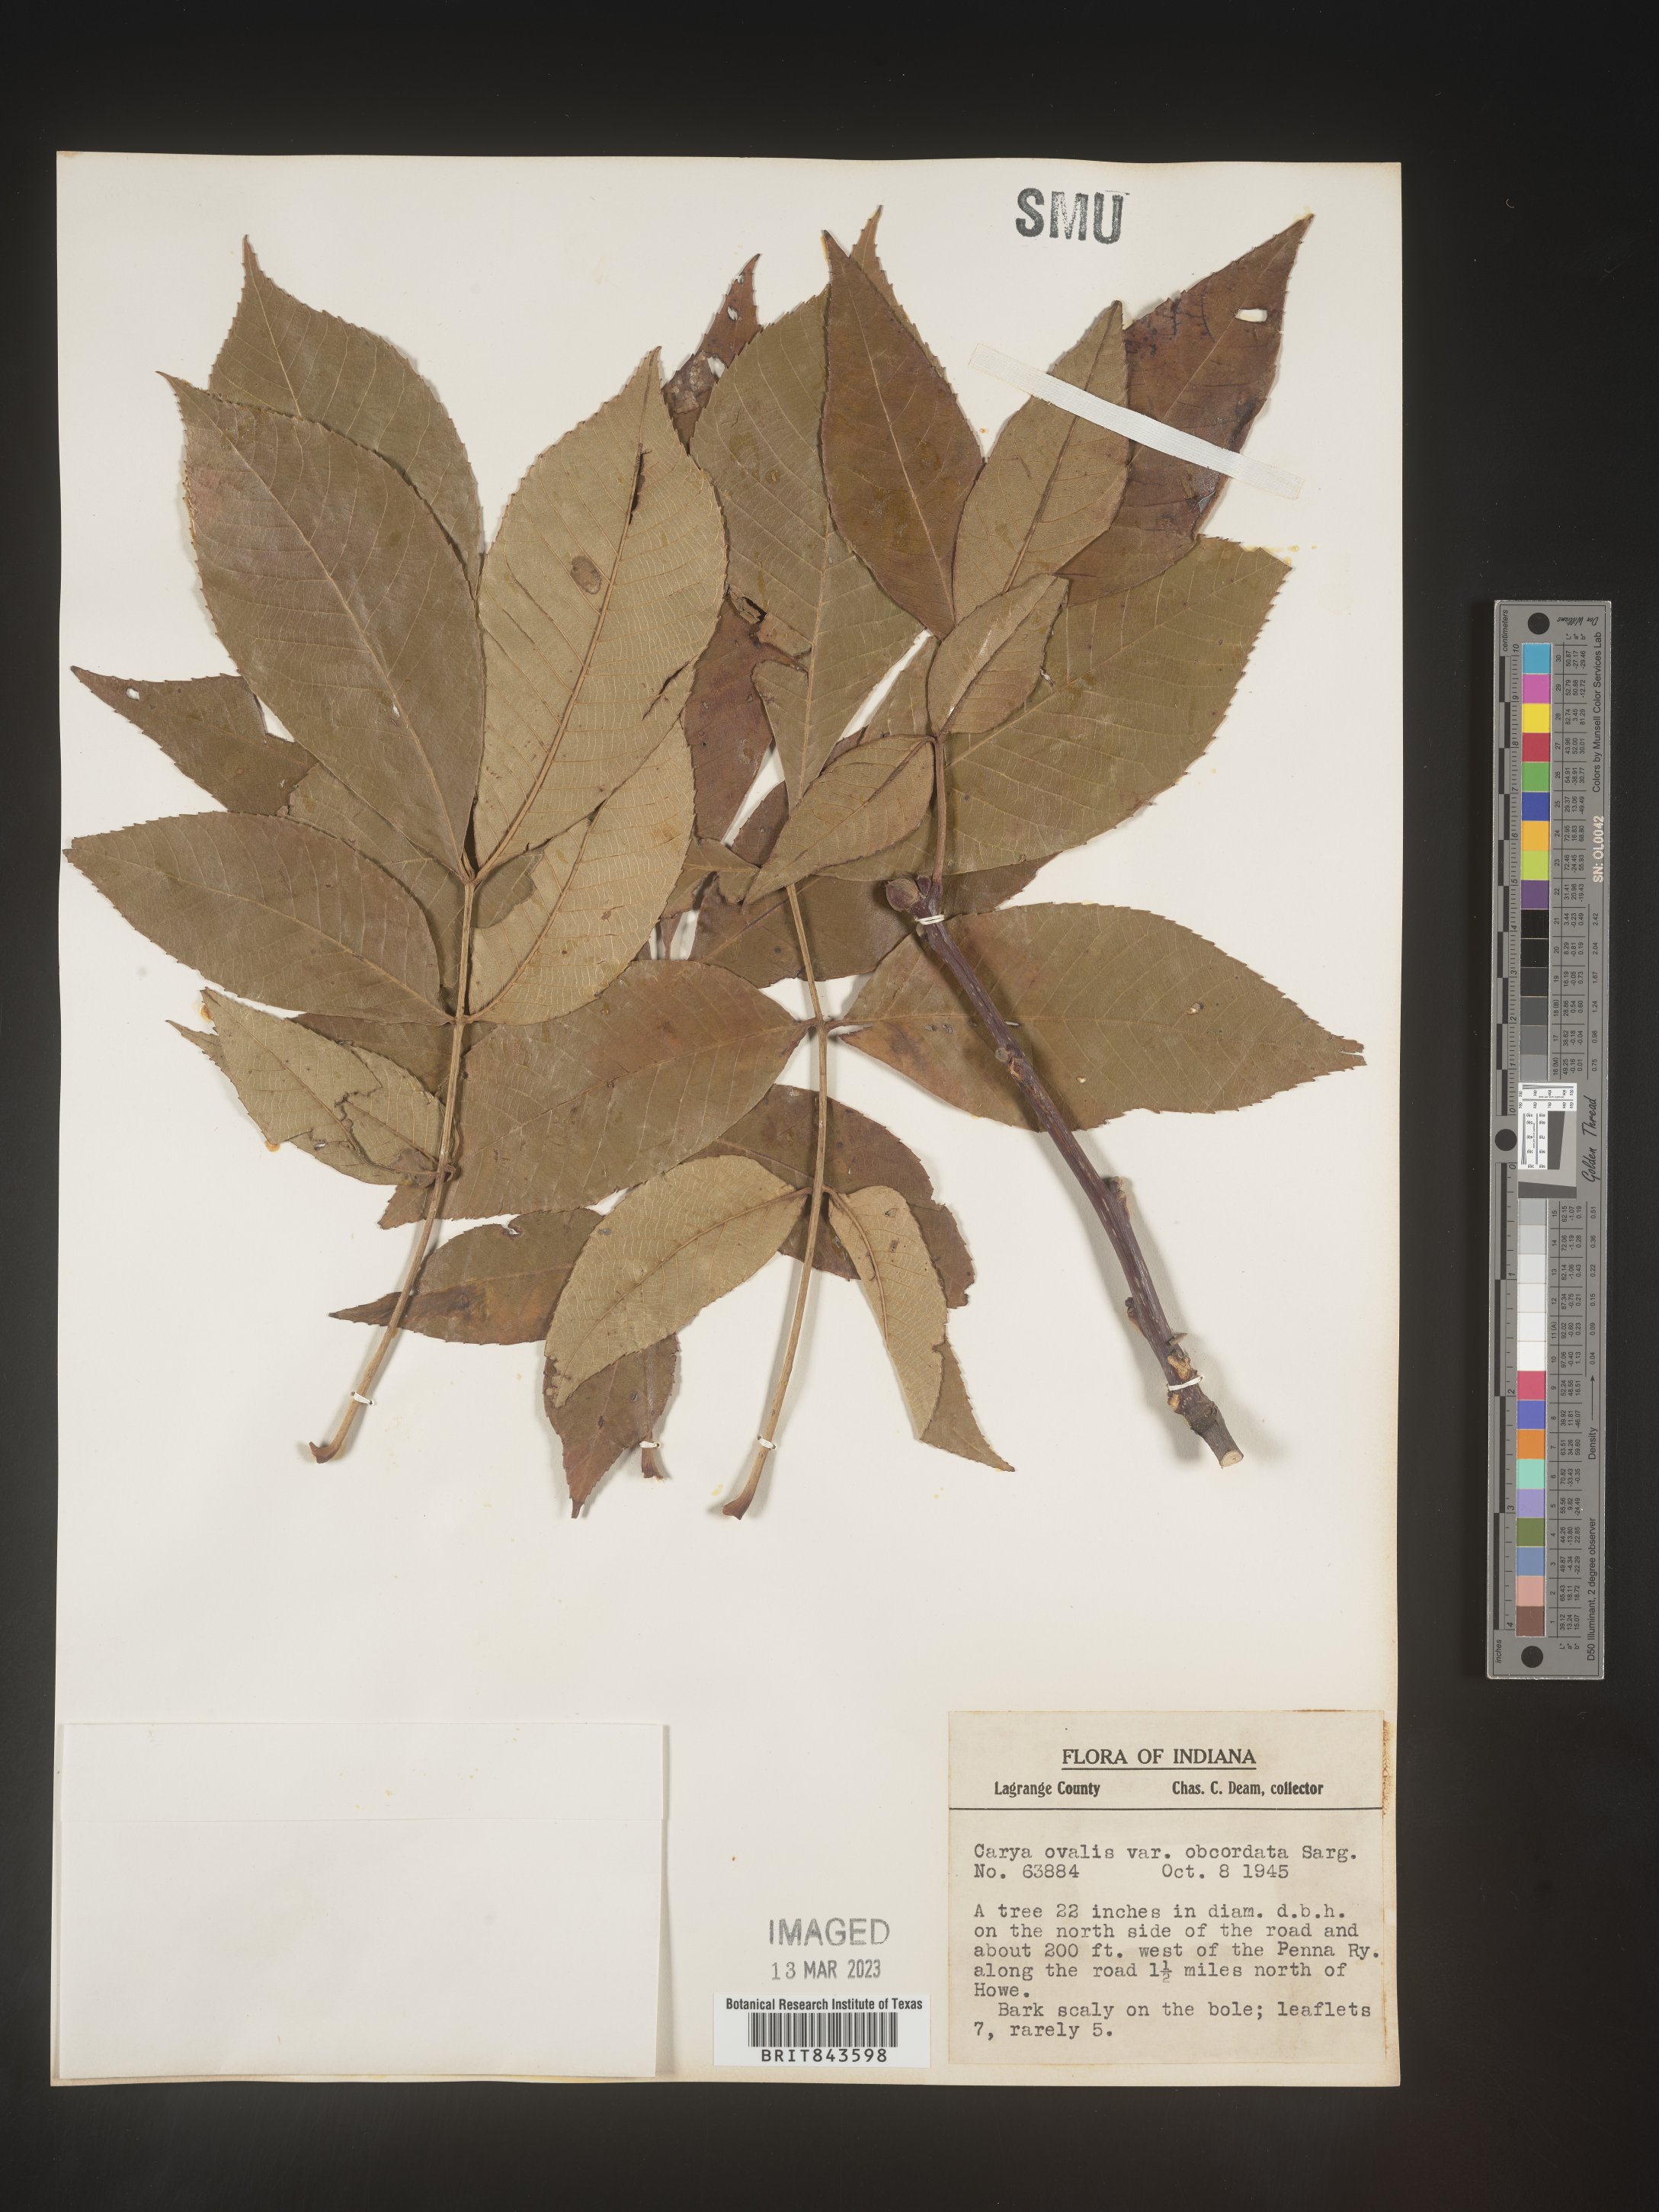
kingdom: Plantae
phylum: Tracheophyta
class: Magnoliopsida
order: Fagales
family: Juglandaceae
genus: Carya
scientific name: Carya ovalis
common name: False shagbark
